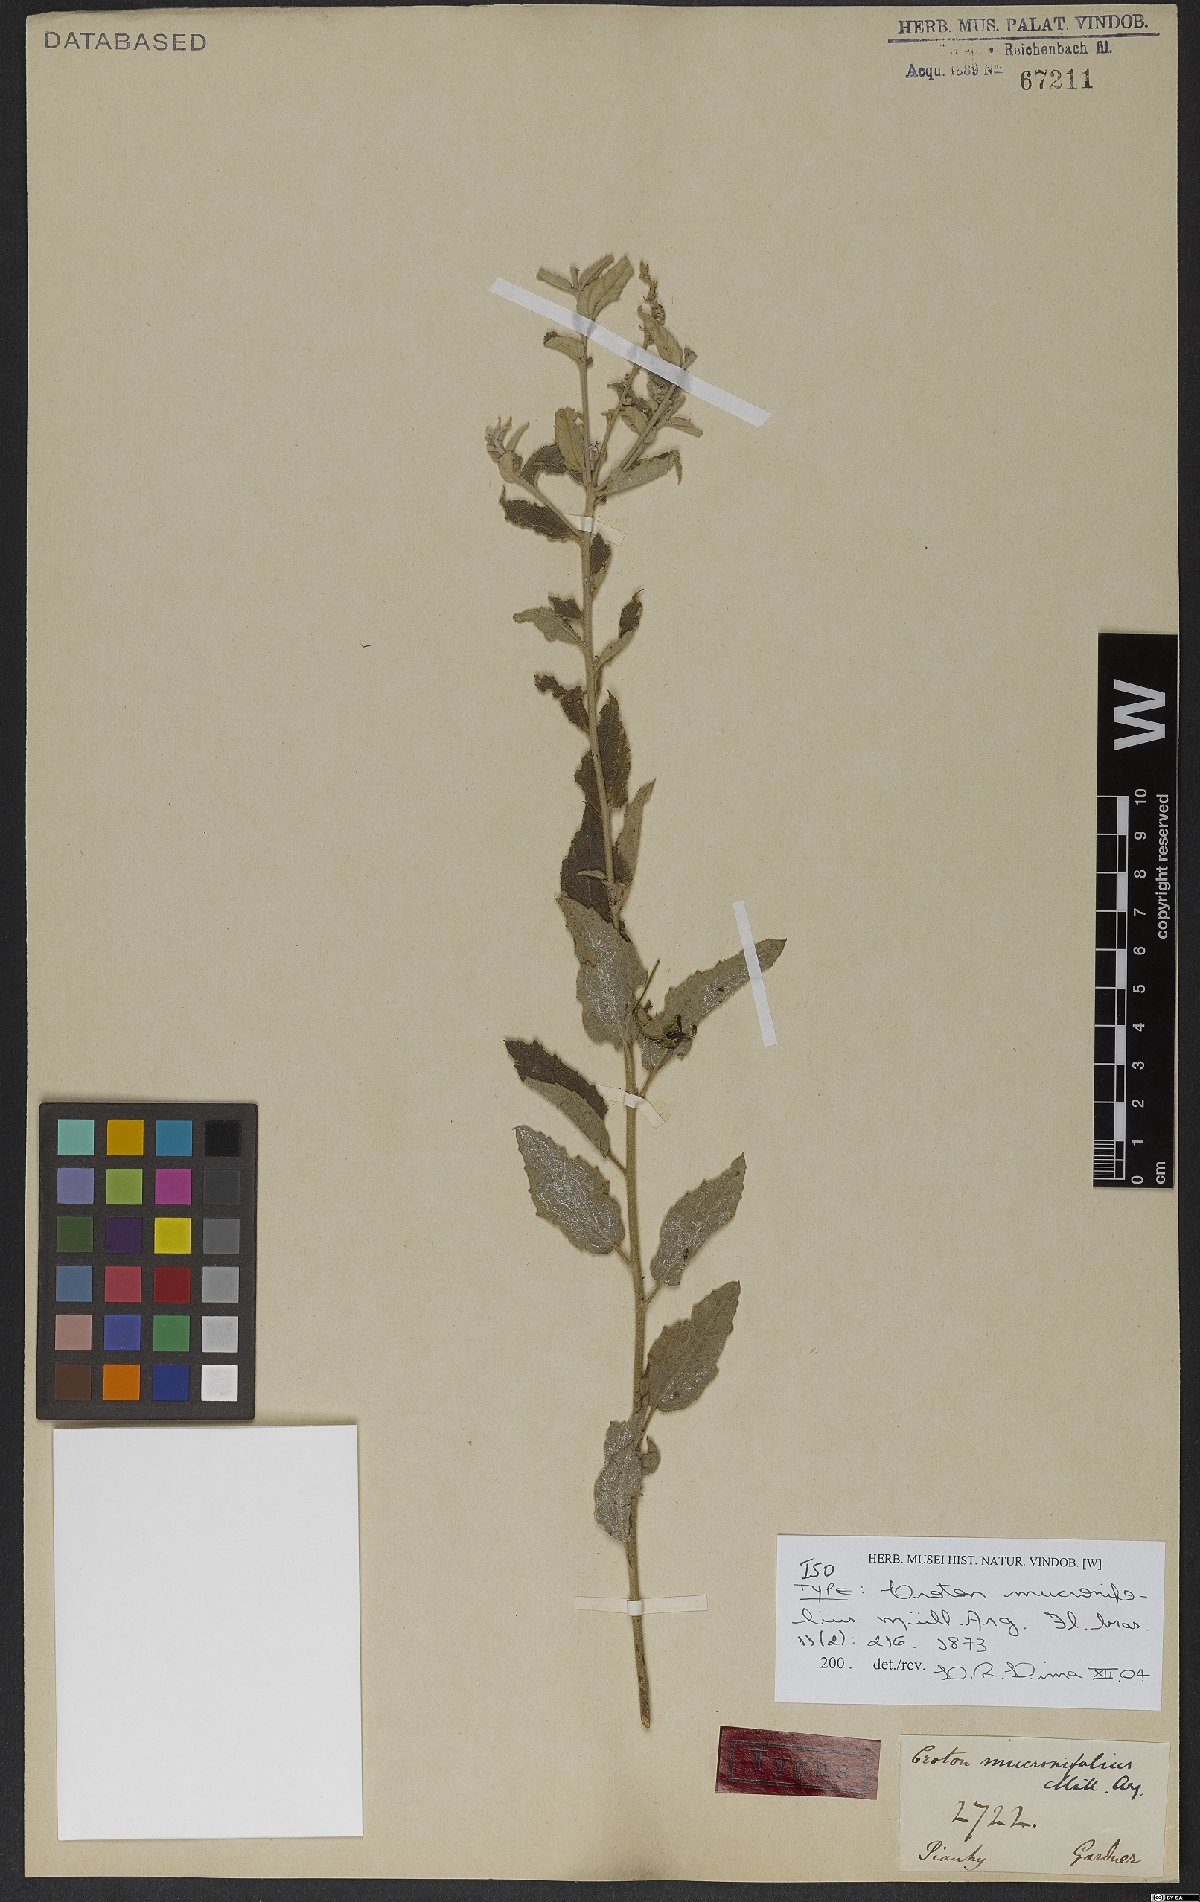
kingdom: Plantae
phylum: Tracheophyta
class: Magnoliopsida
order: Malpighiales
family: Euphorbiaceae
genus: Croton
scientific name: Croton mucronifolius
